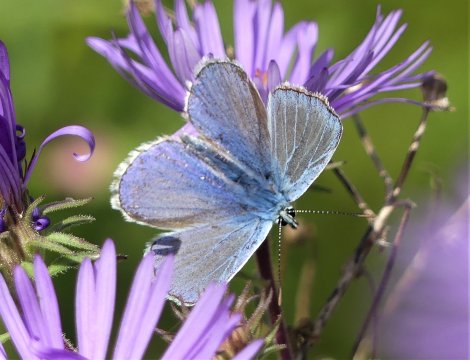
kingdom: Animalia
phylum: Arthropoda
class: Insecta
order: Lepidoptera
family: Lycaenidae
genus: Polyommatus
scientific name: Polyommatus icarus
